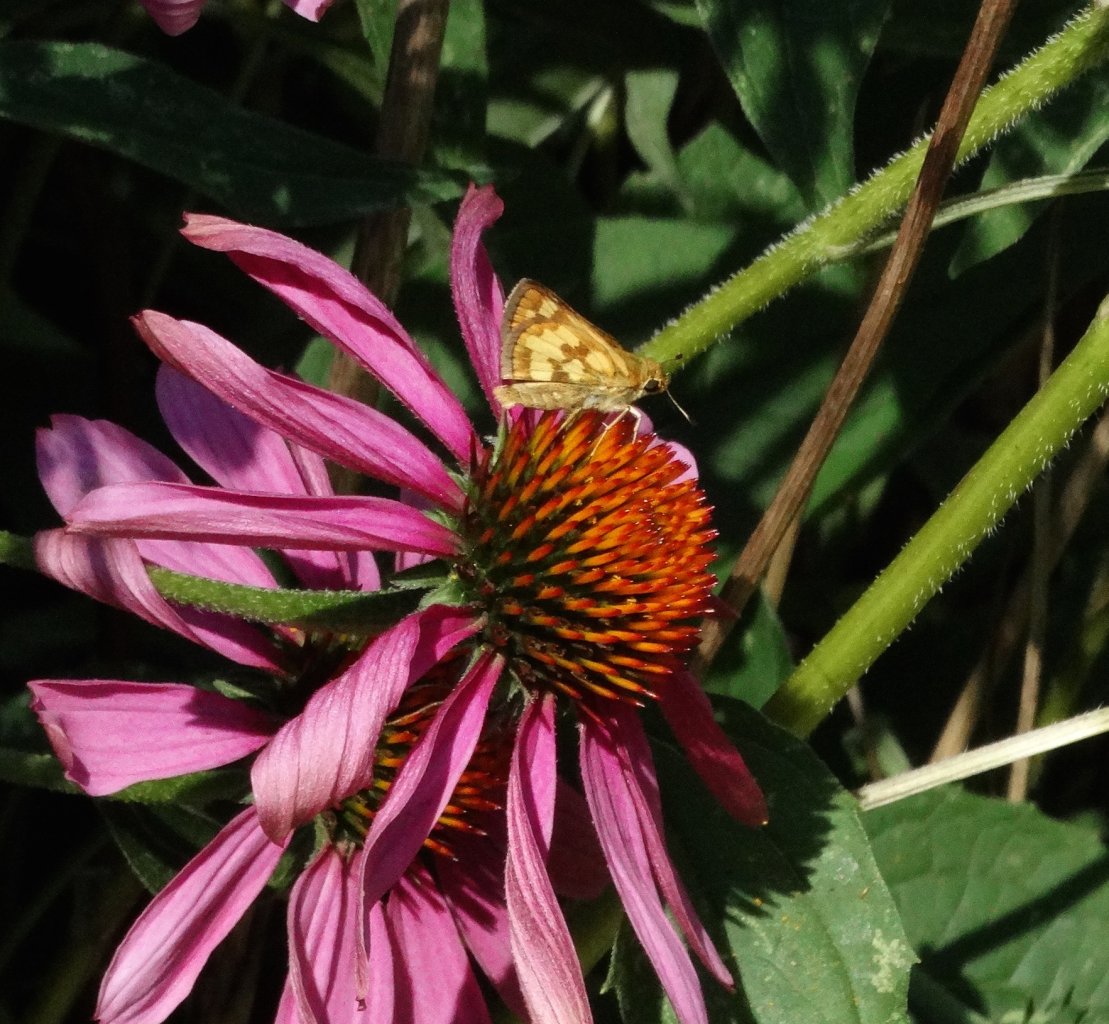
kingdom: Animalia
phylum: Arthropoda
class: Insecta
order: Lepidoptera
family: Hesperiidae
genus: Polites
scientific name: Polites coras
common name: Peck's Skipper
